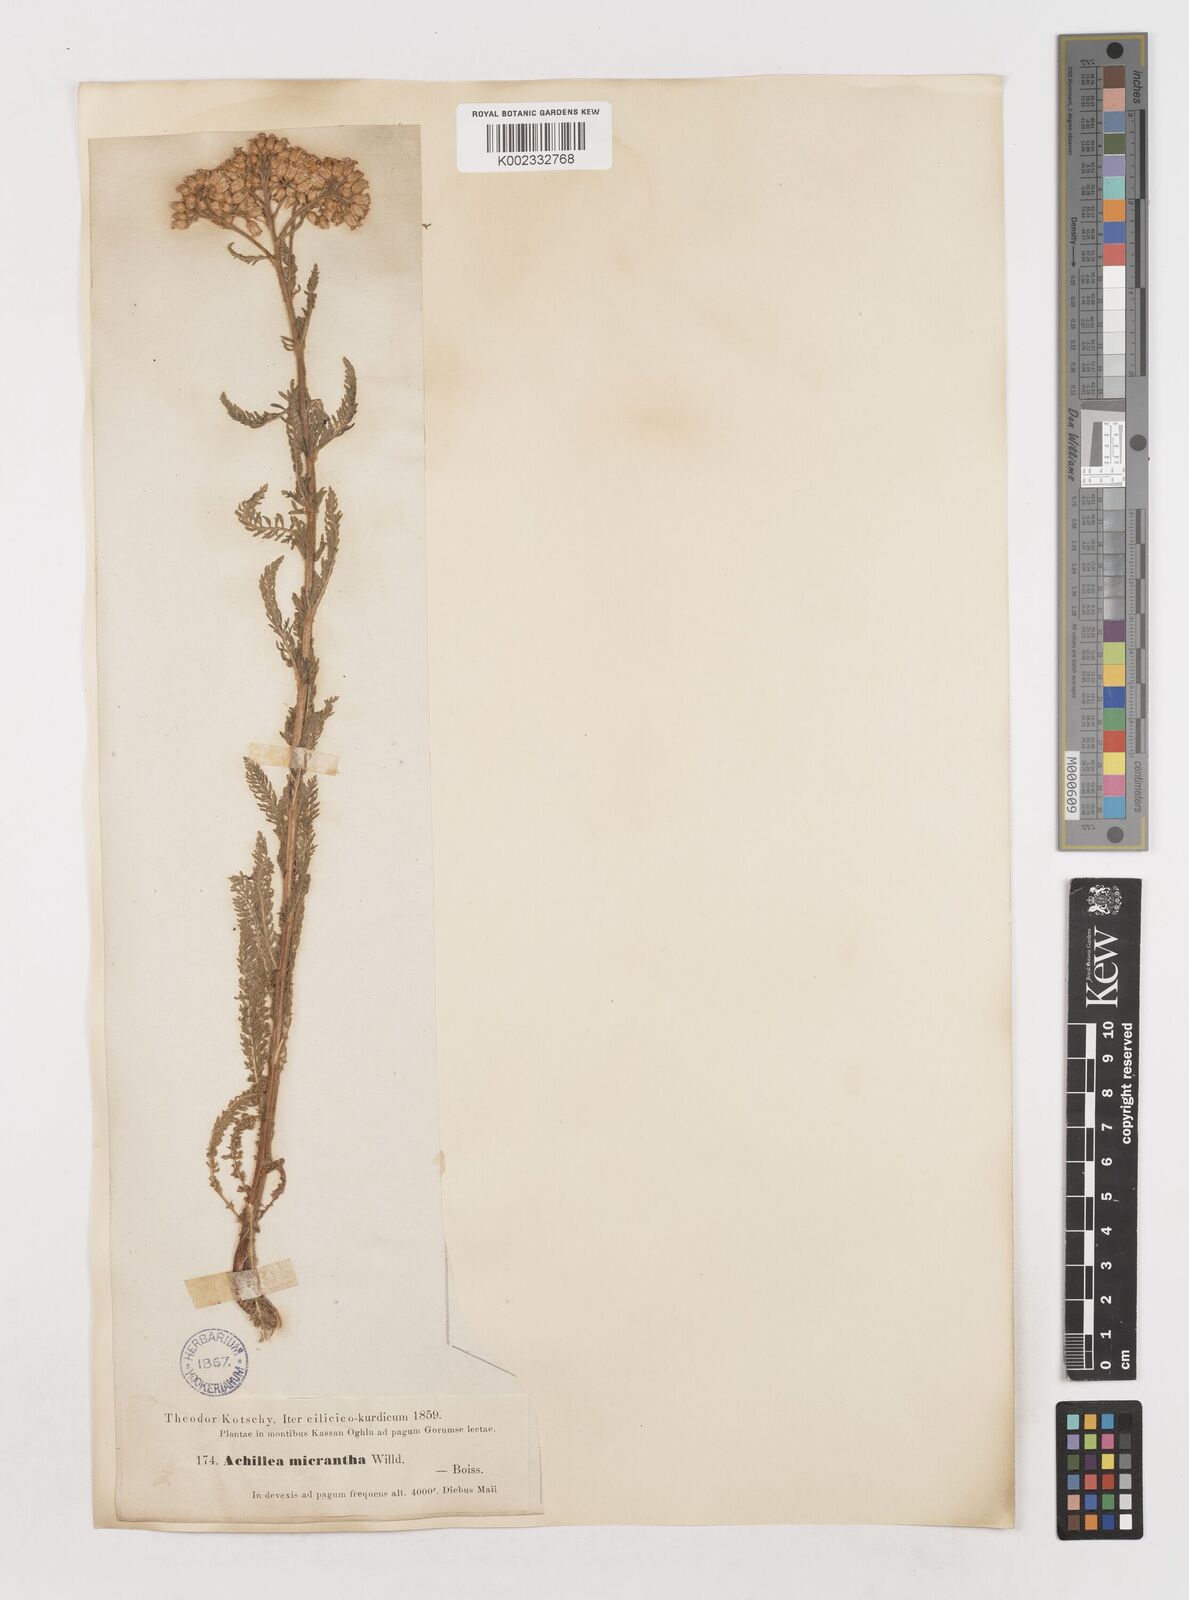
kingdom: Plantae
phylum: Tracheophyta
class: Magnoliopsida
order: Asterales
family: Asteraceae
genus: Achillea
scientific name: Achillea micrantha
